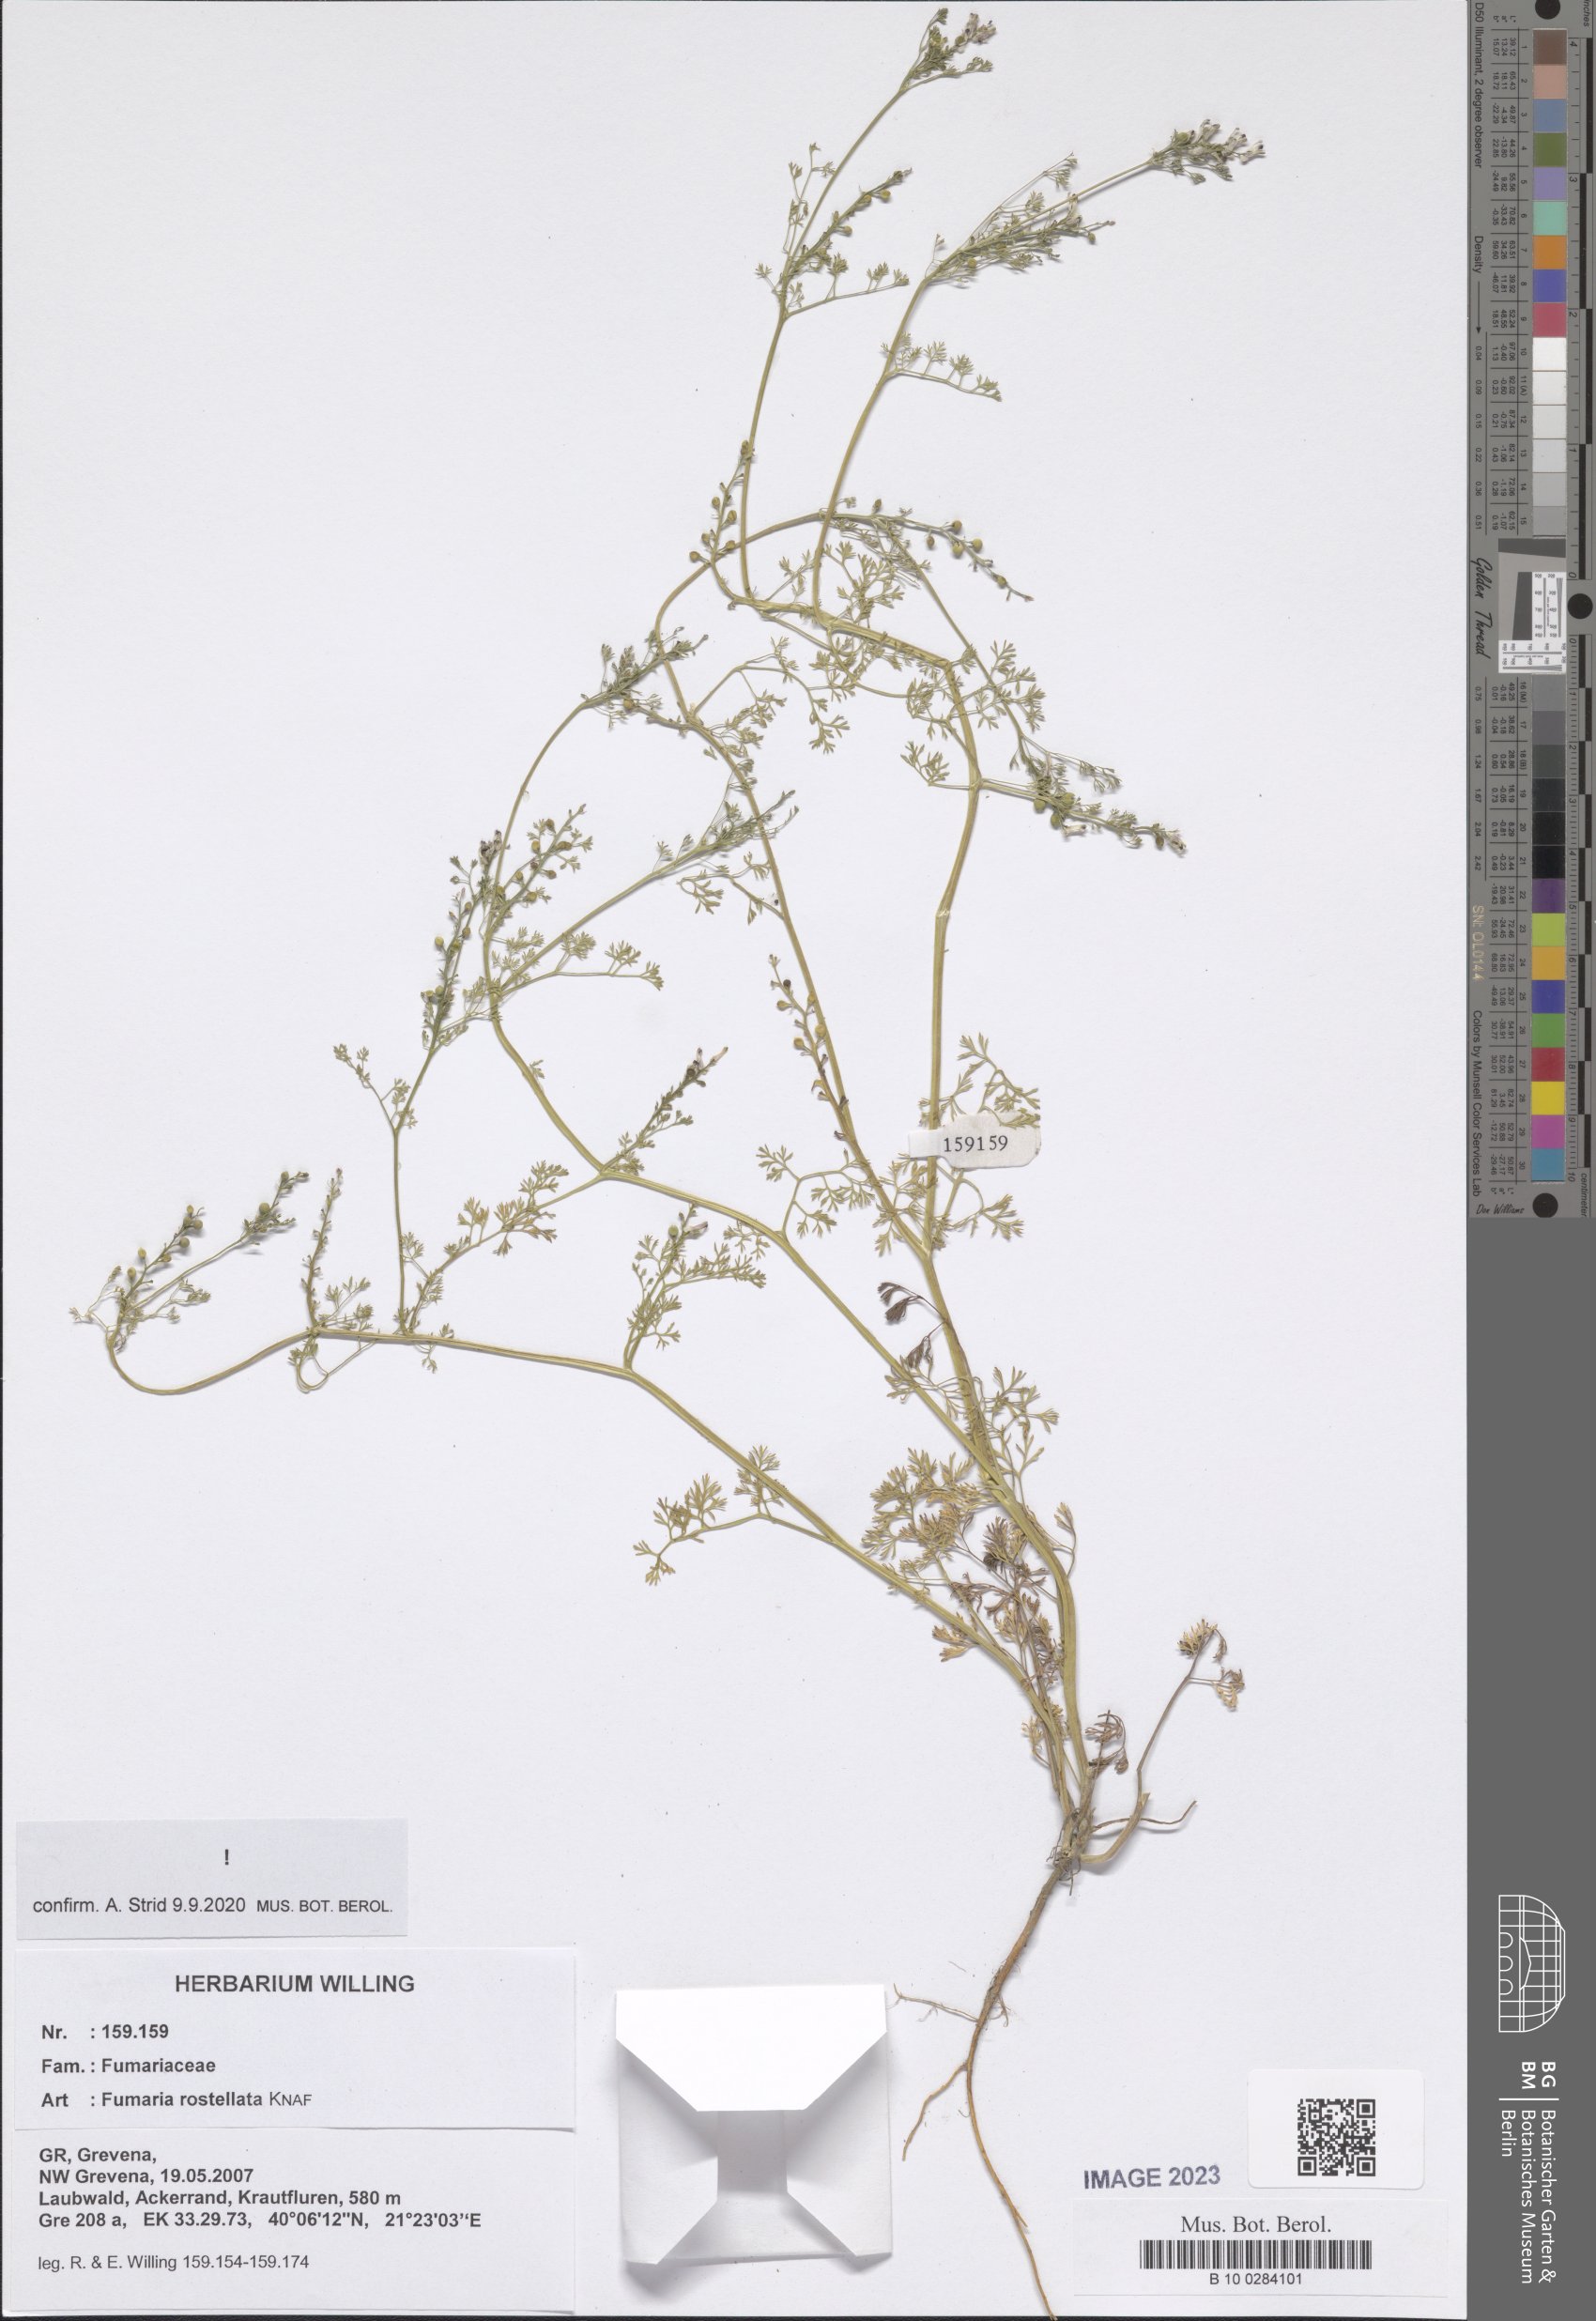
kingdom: Plantae
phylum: Tracheophyta
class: Magnoliopsida
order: Ranunculales
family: Papaveraceae
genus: Fumaria
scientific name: Fumaria rostellata
